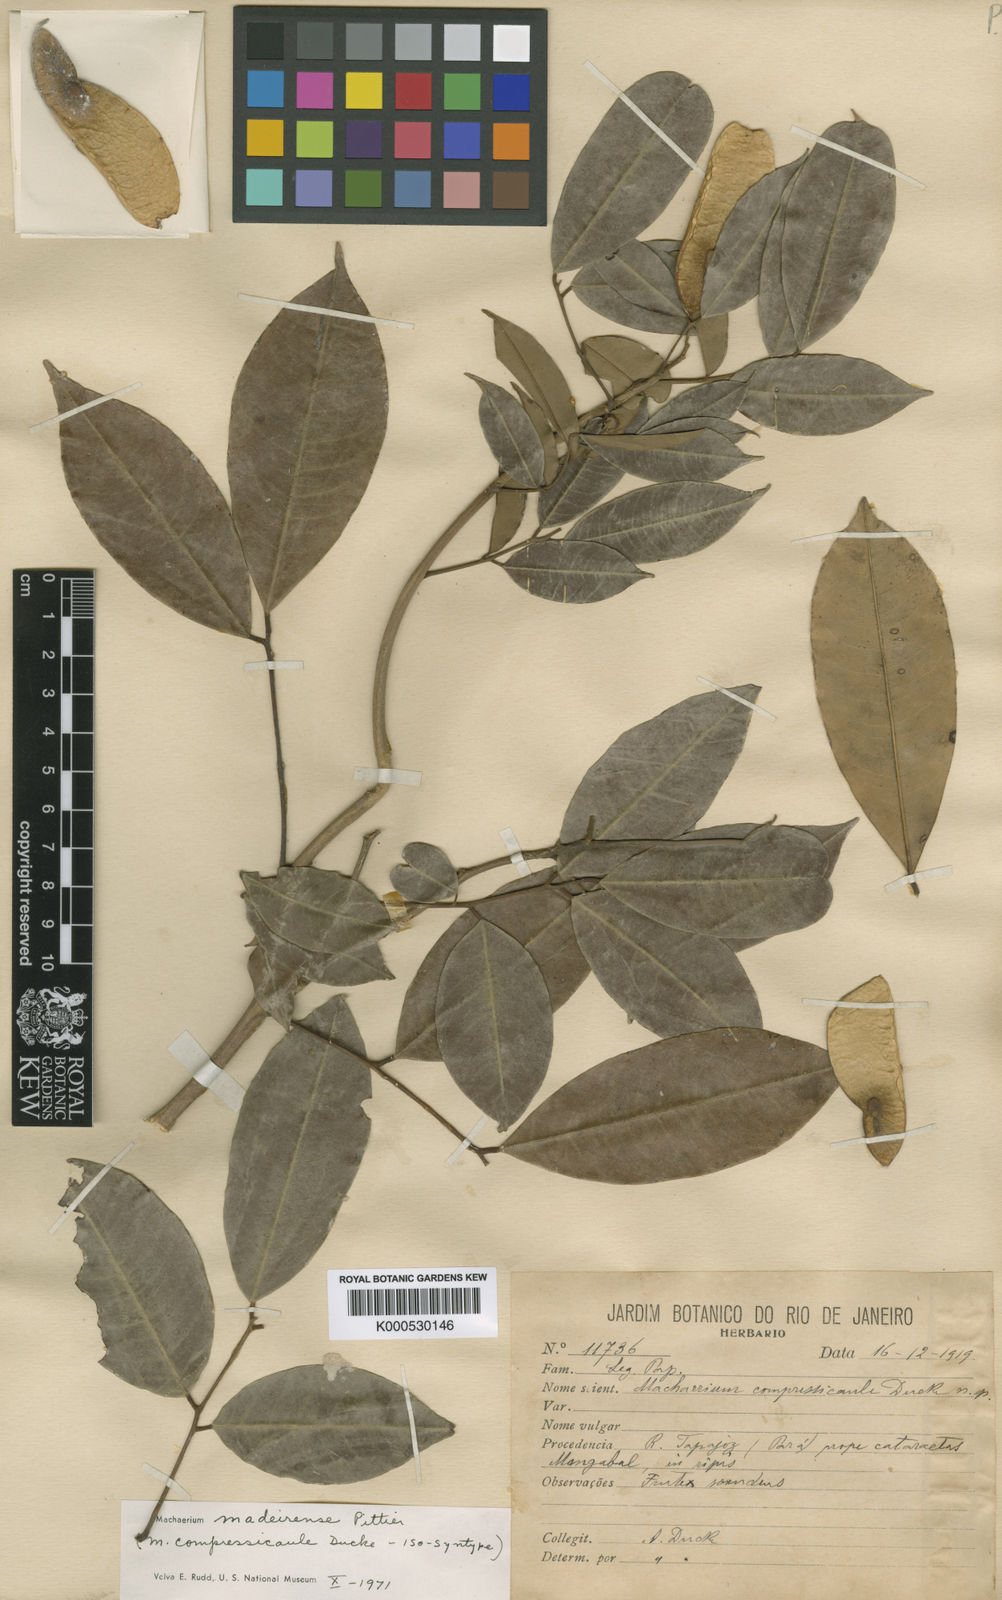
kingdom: Plantae
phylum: Tracheophyta
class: Magnoliopsida
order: Fabales
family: Fabaceae
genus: Machaerium
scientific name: Machaerium madeirense
